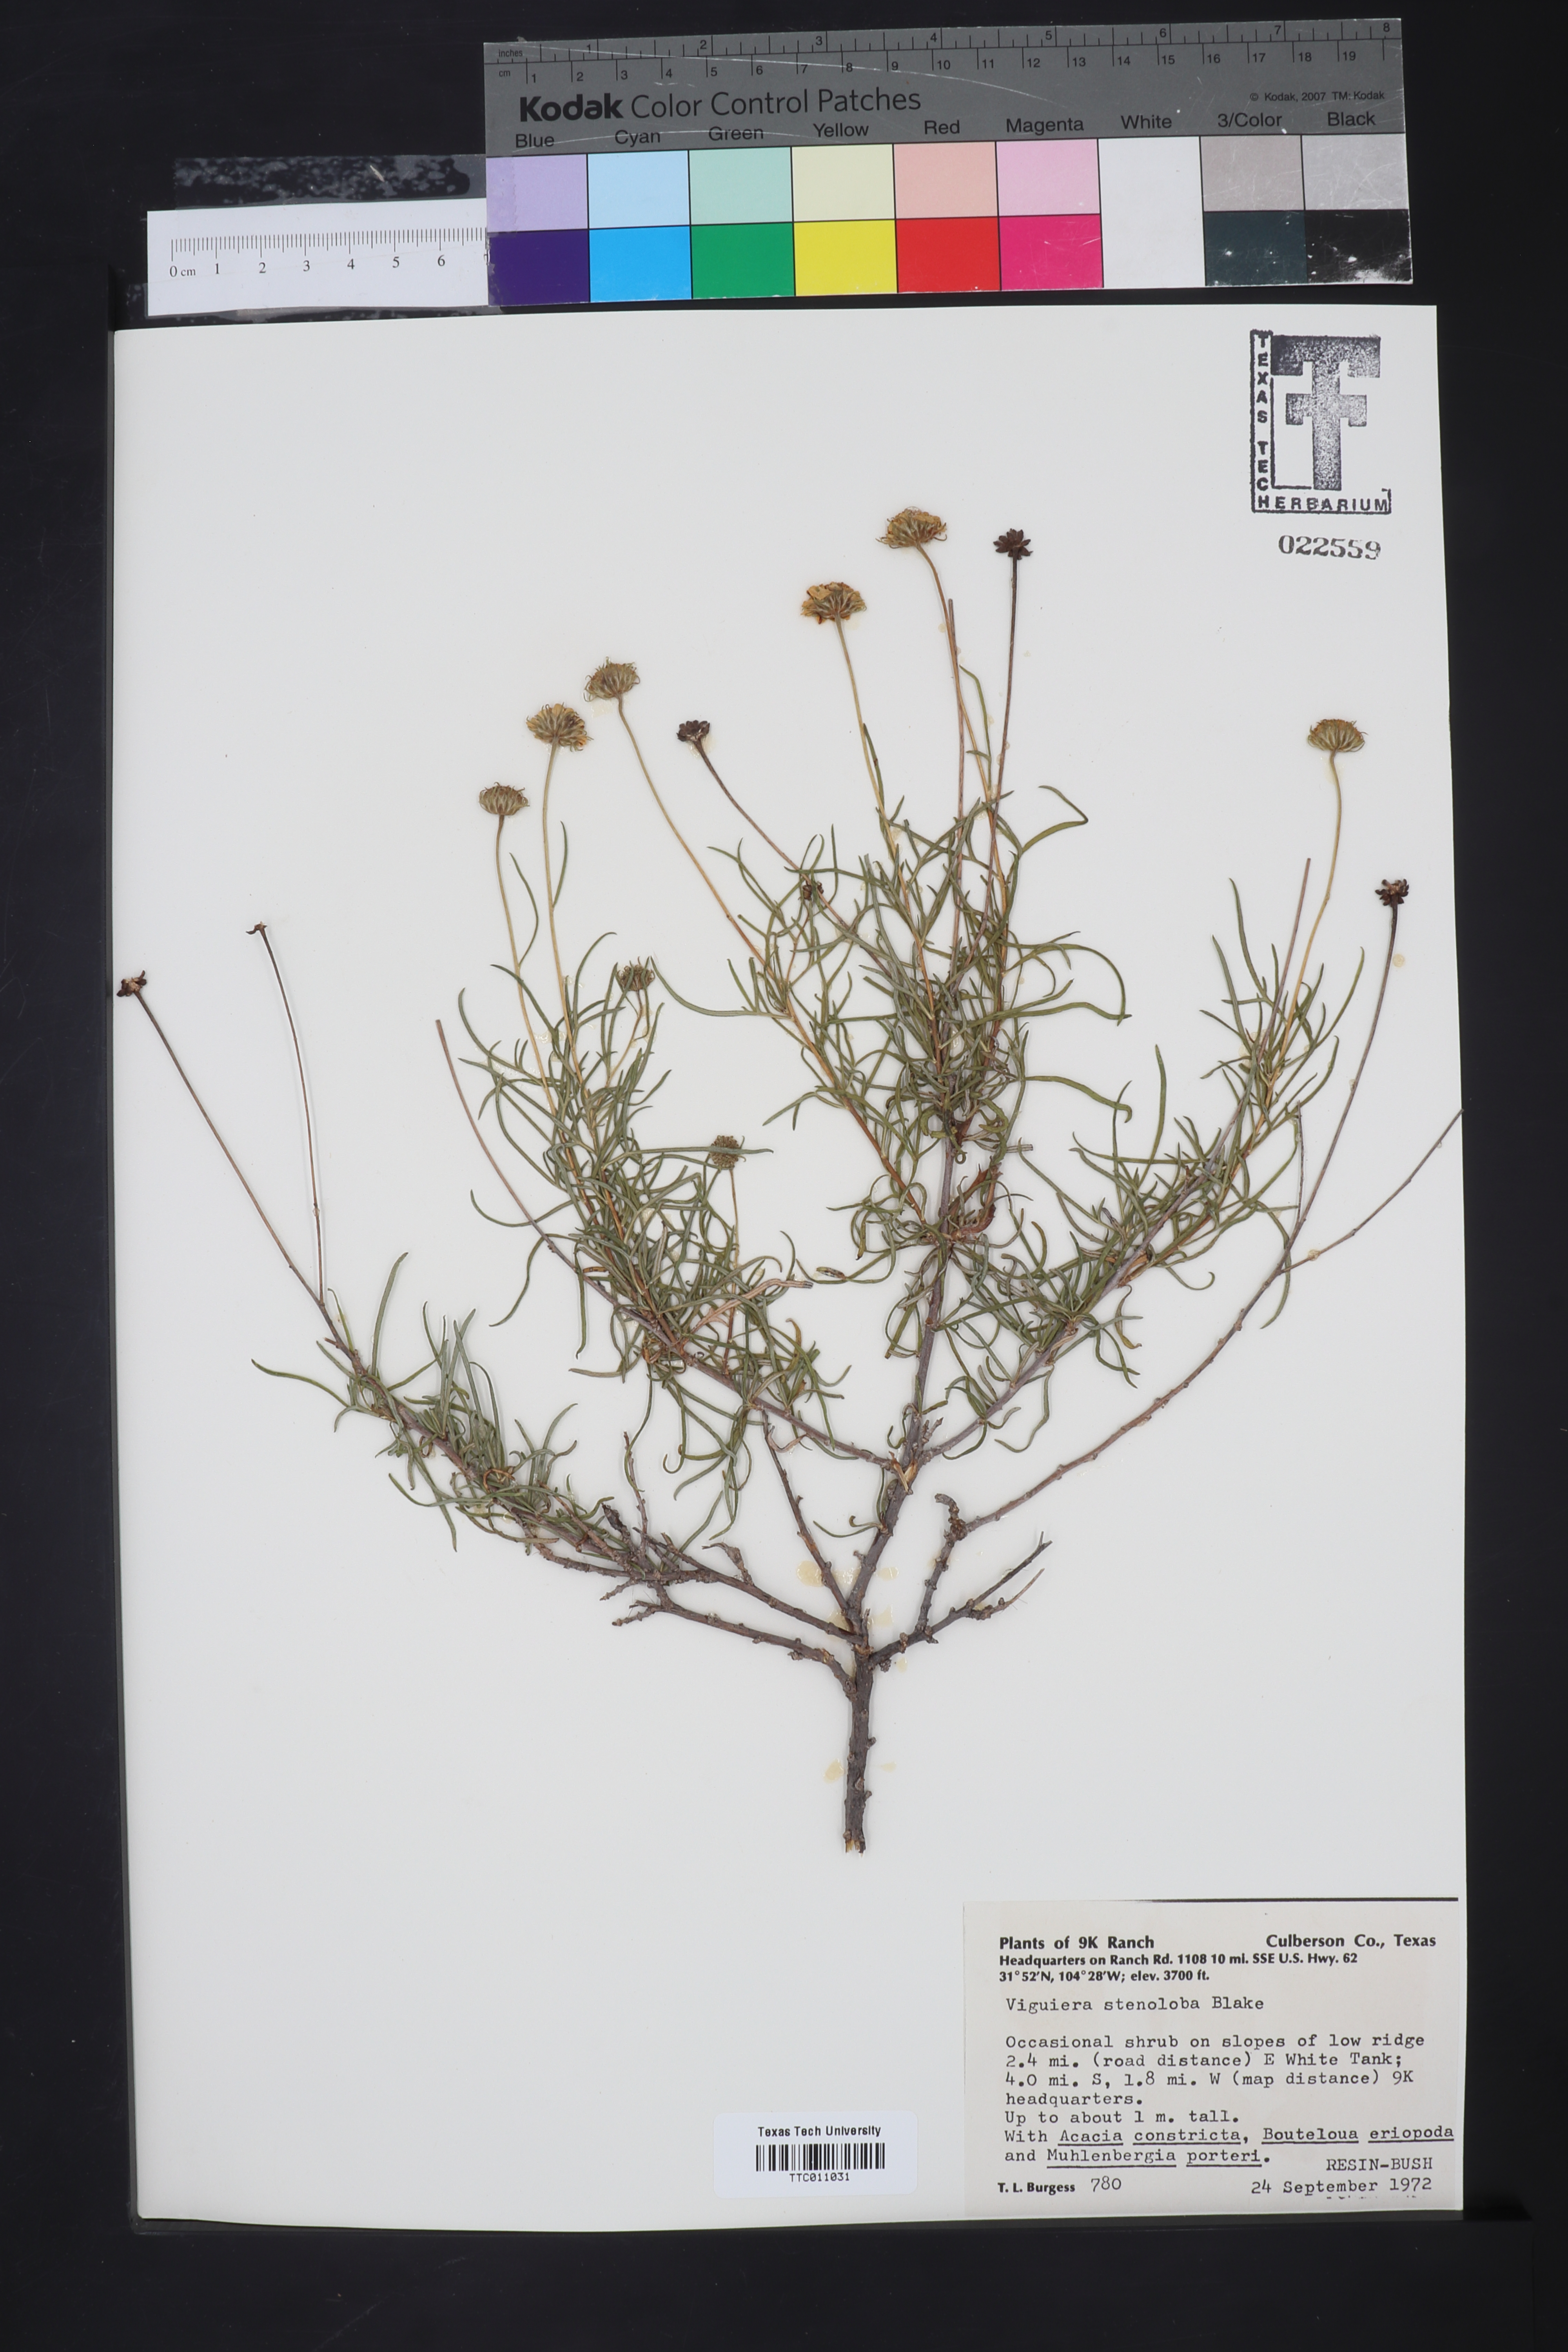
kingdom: Plantae
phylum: Tracheophyta
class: Magnoliopsida
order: Asterales
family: Asteraceae
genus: Sidneya
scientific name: Sidneya tenuifolia
